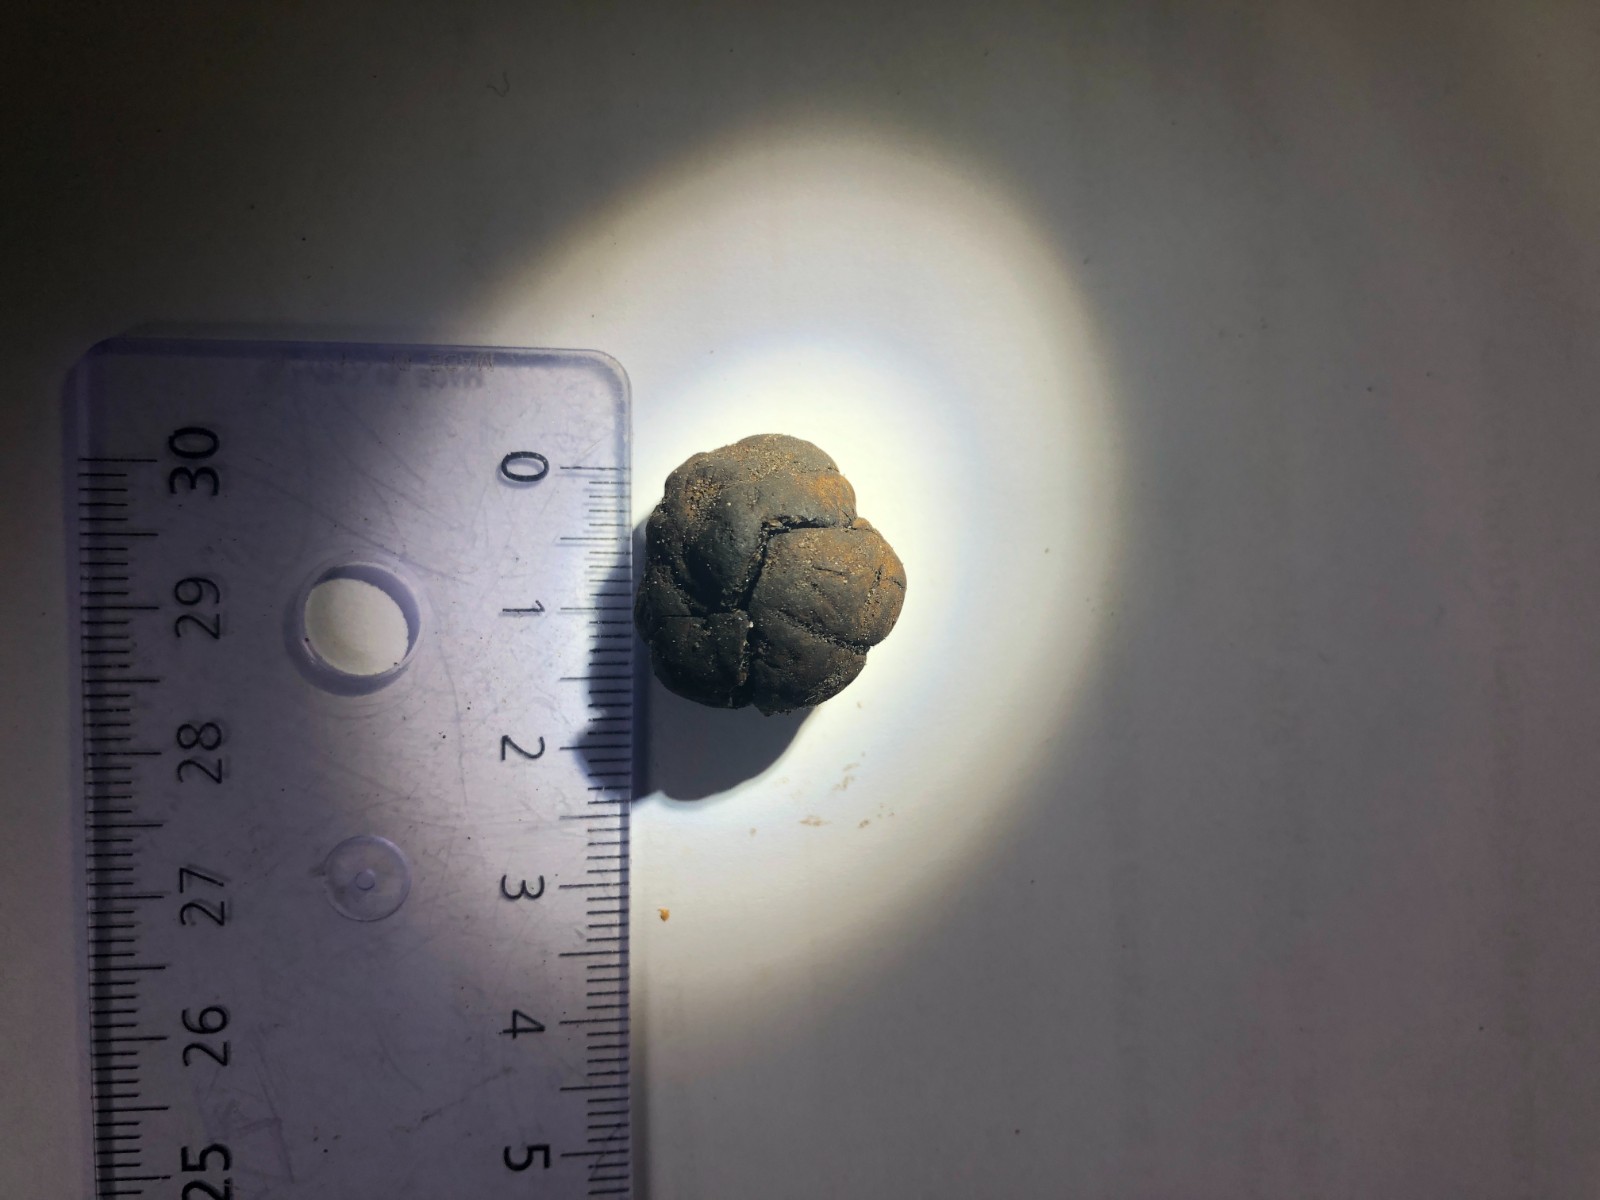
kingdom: Fungi
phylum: Basidiomycota
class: Agaricomycetes
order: Boletales
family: Paxillaceae
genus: Melanogaster
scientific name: Melanogaster
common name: slimtrøffel
